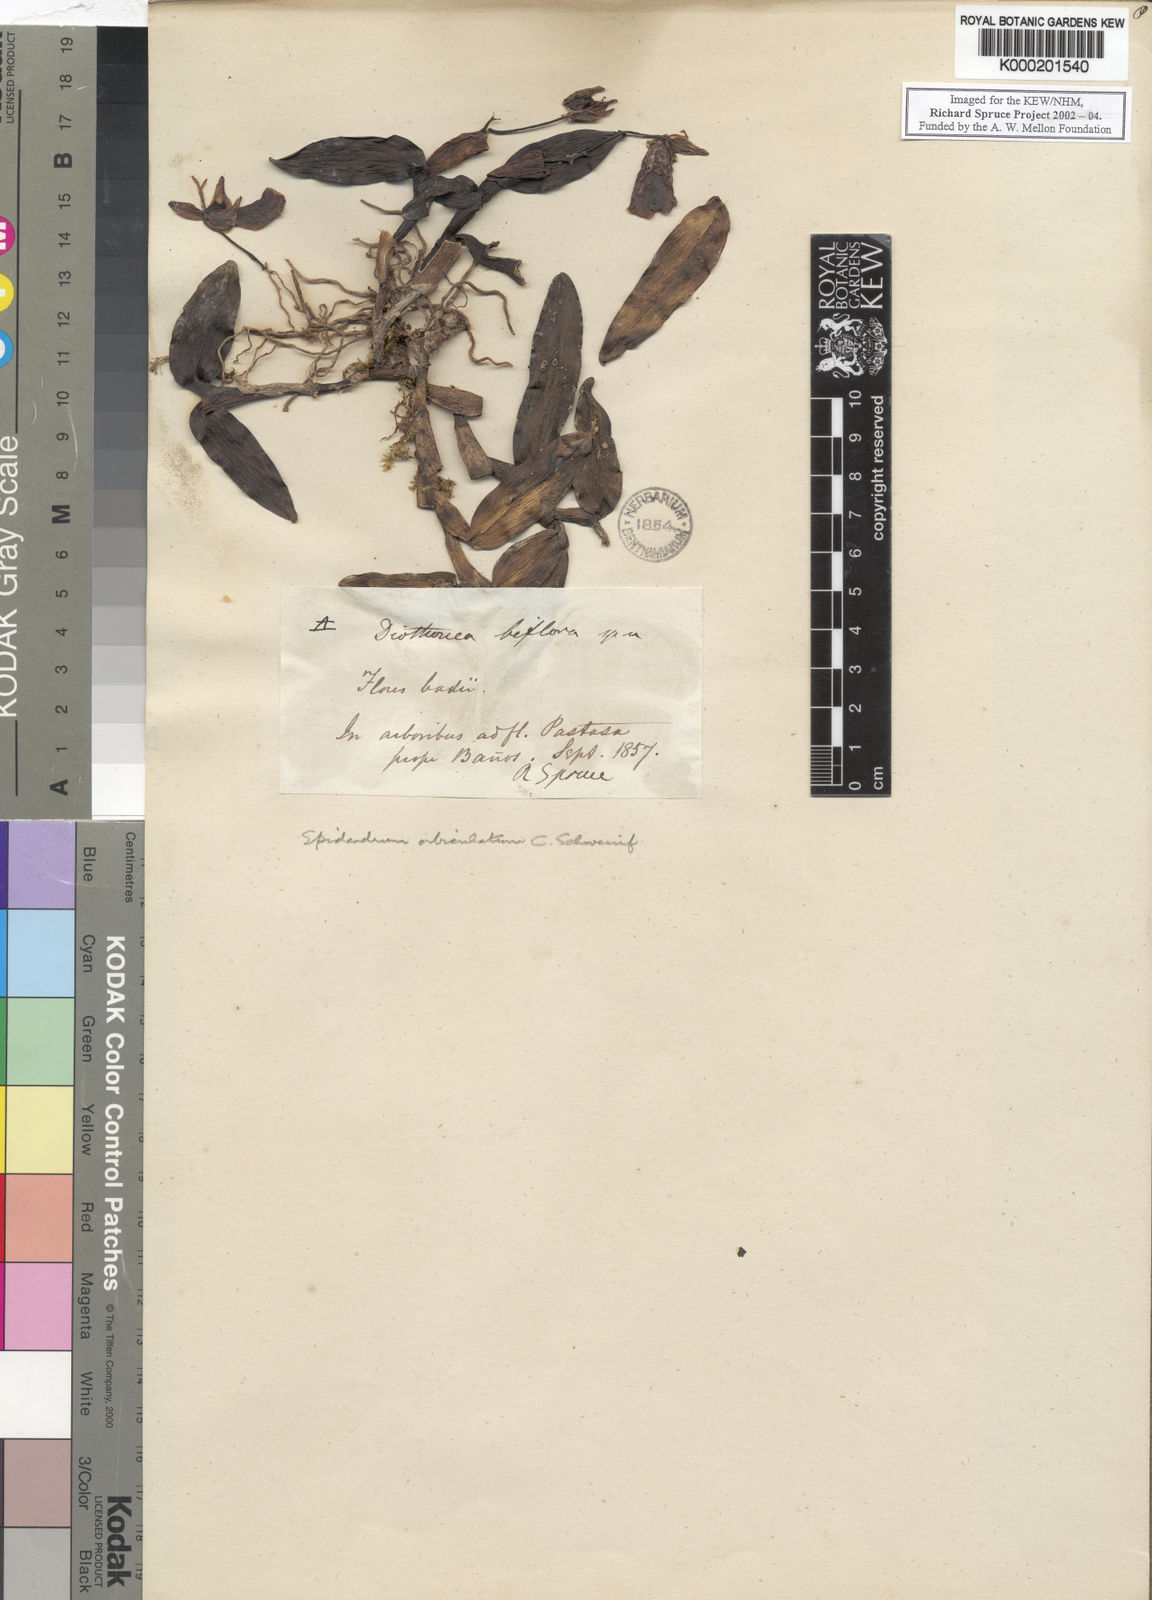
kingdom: Plantae
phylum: Tracheophyta
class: Liliopsida
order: Asparagales
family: Orchidaceae
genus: Epidendrum
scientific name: Epidendrum orbiculatum
